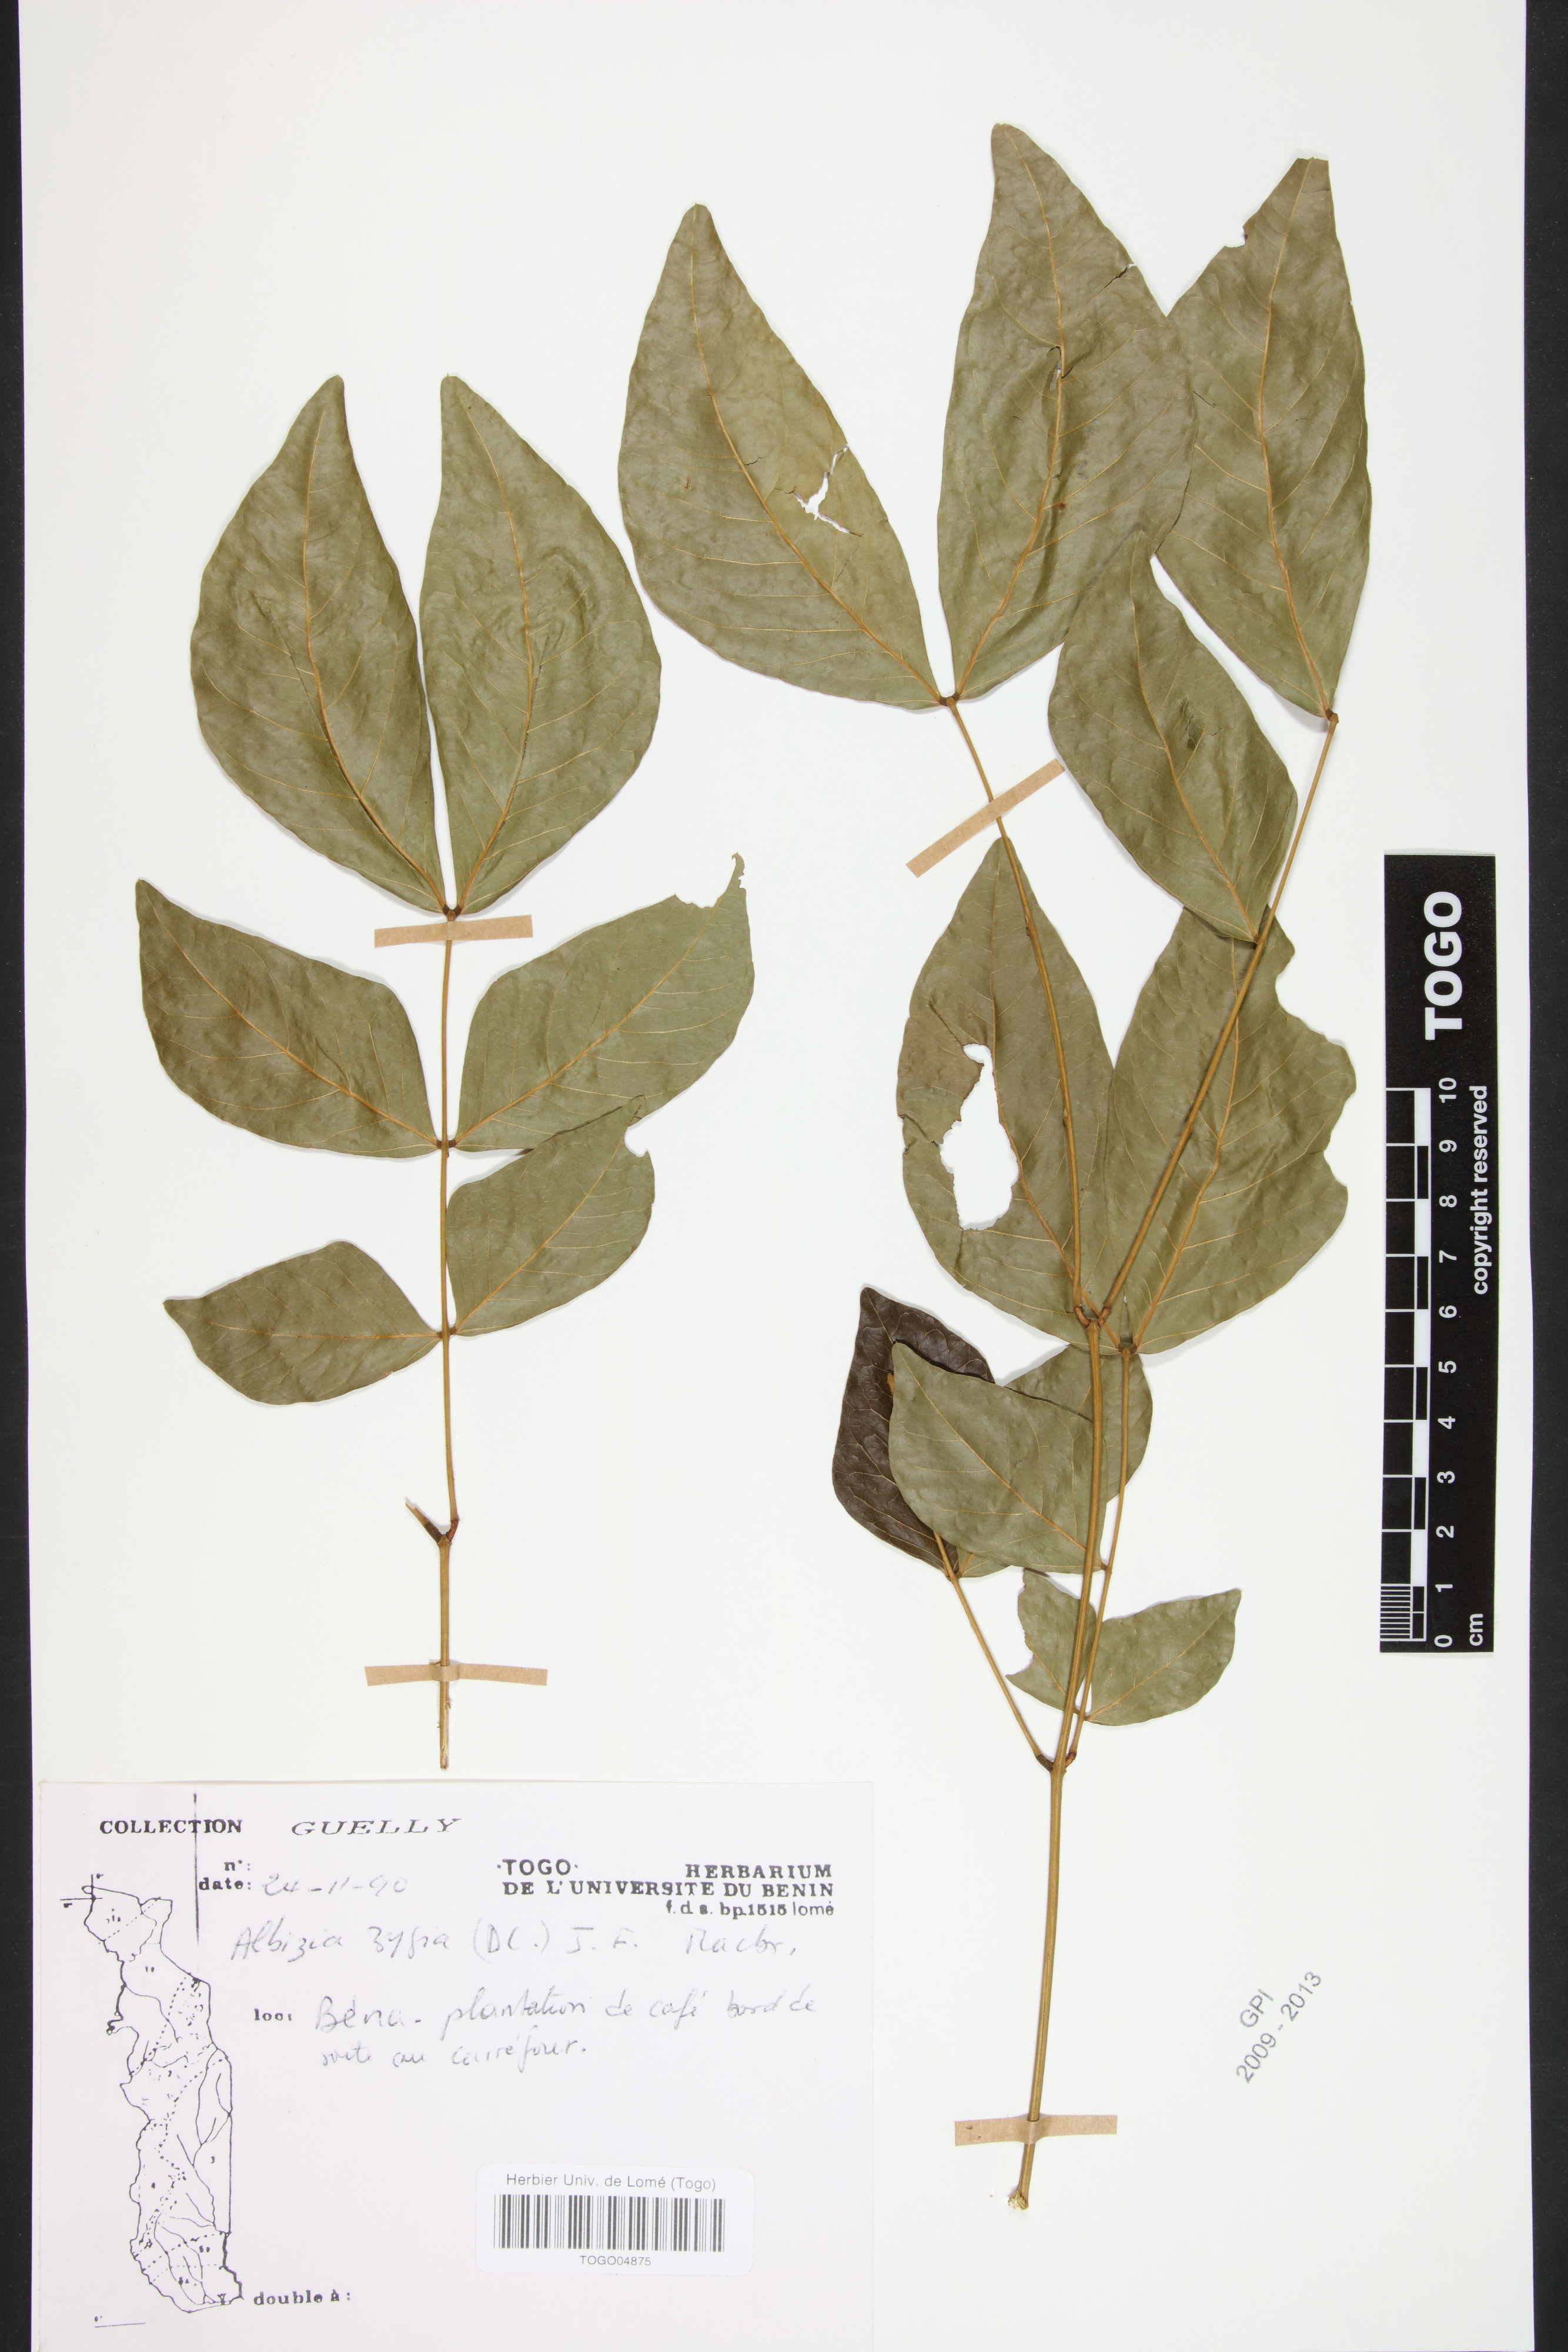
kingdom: Plantae
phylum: Tracheophyta
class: Magnoliopsida
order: Fabales
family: Fabaceae
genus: Albizia
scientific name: Albizia zygia
